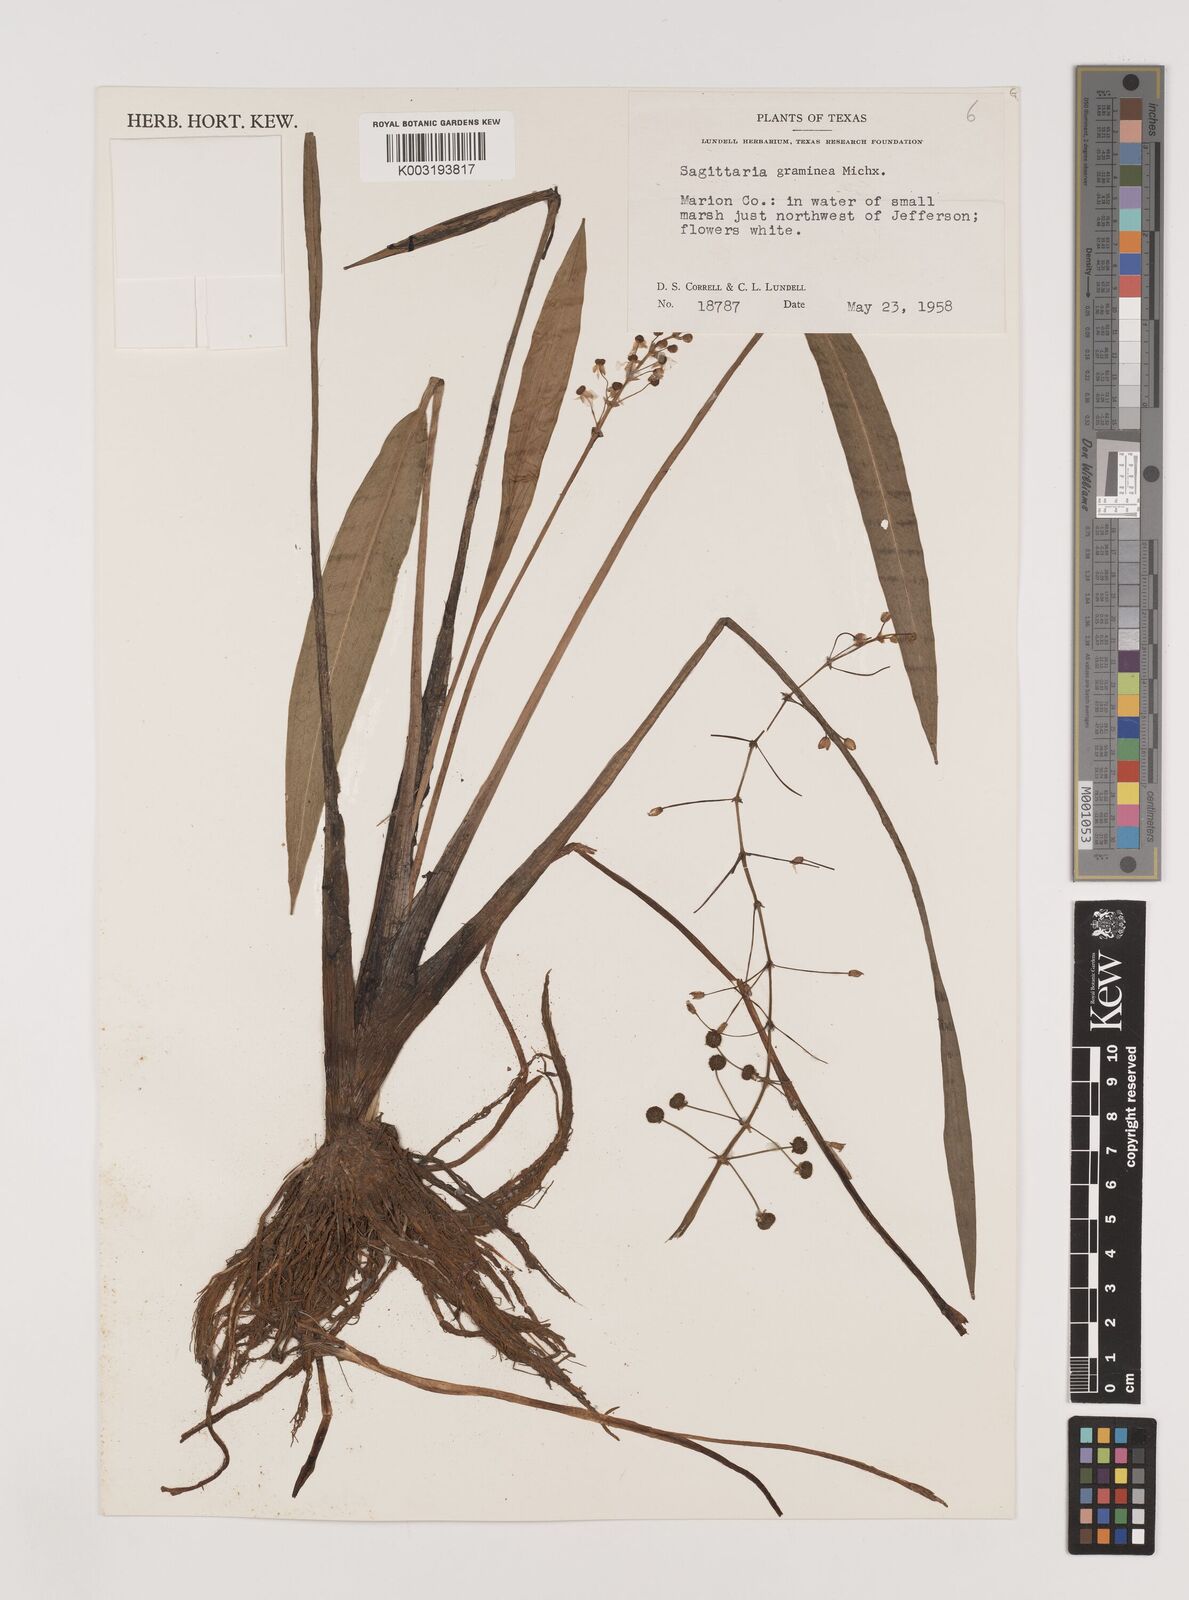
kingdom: Plantae
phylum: Tracheophyta
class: Liliopsida
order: Alismatales
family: Alismataceae
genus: Sagittaria
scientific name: Sagittaria graminea
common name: Grass-leaved arrowhead
